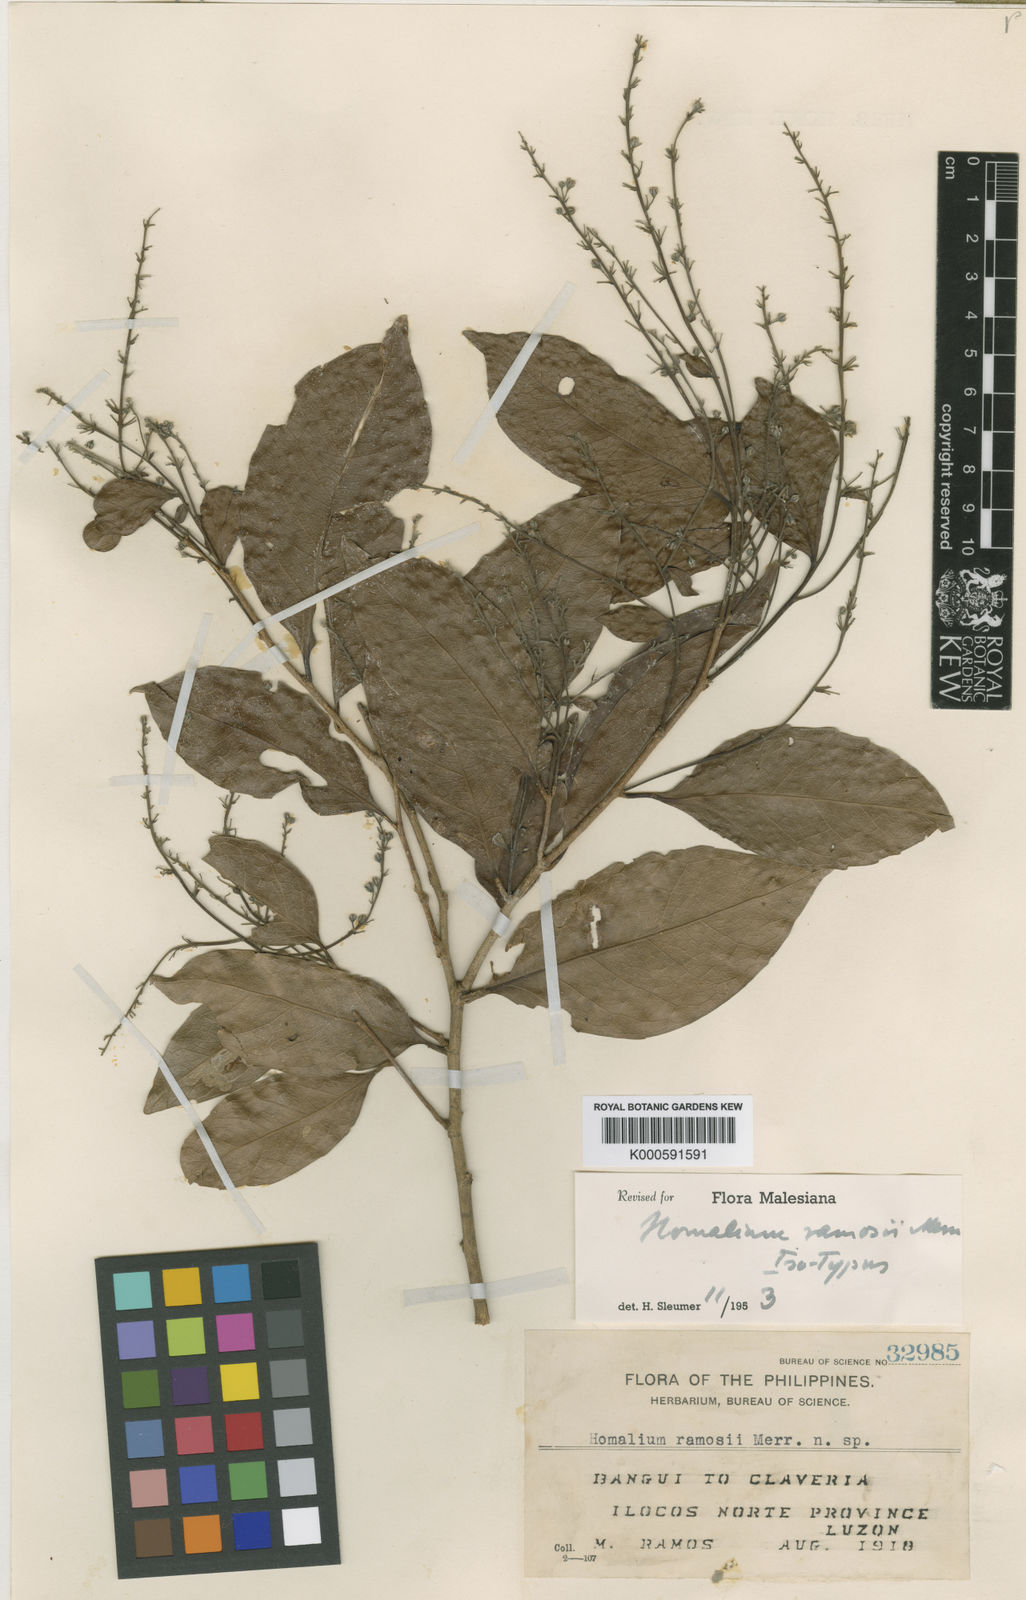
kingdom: Plantae
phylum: Tracheophyta
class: Magnoliopsida
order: Malpighiales
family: Salicaceae
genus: Homalium
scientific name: Homalium ramosii
